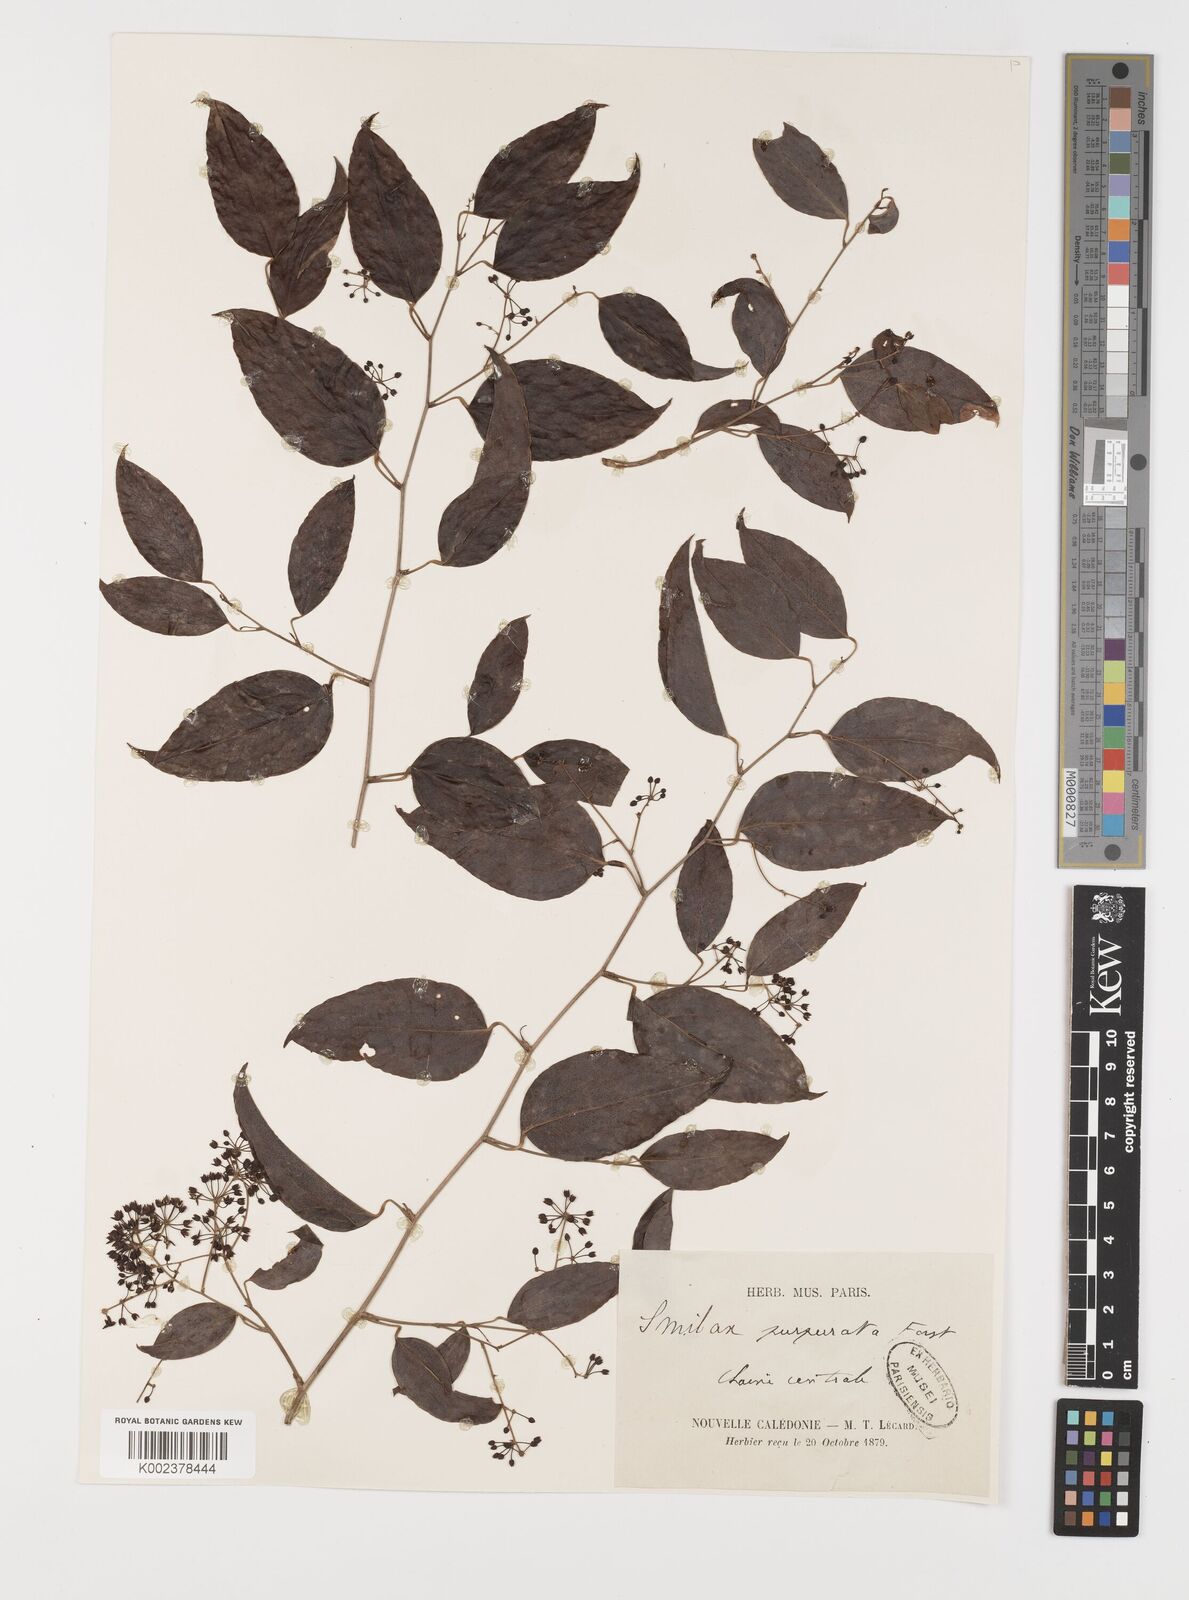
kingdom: Plantae
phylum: Tracheophyta
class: Liliopsida
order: Liliales
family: Smilacaceae
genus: Smilax
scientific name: Smilax purpurata
